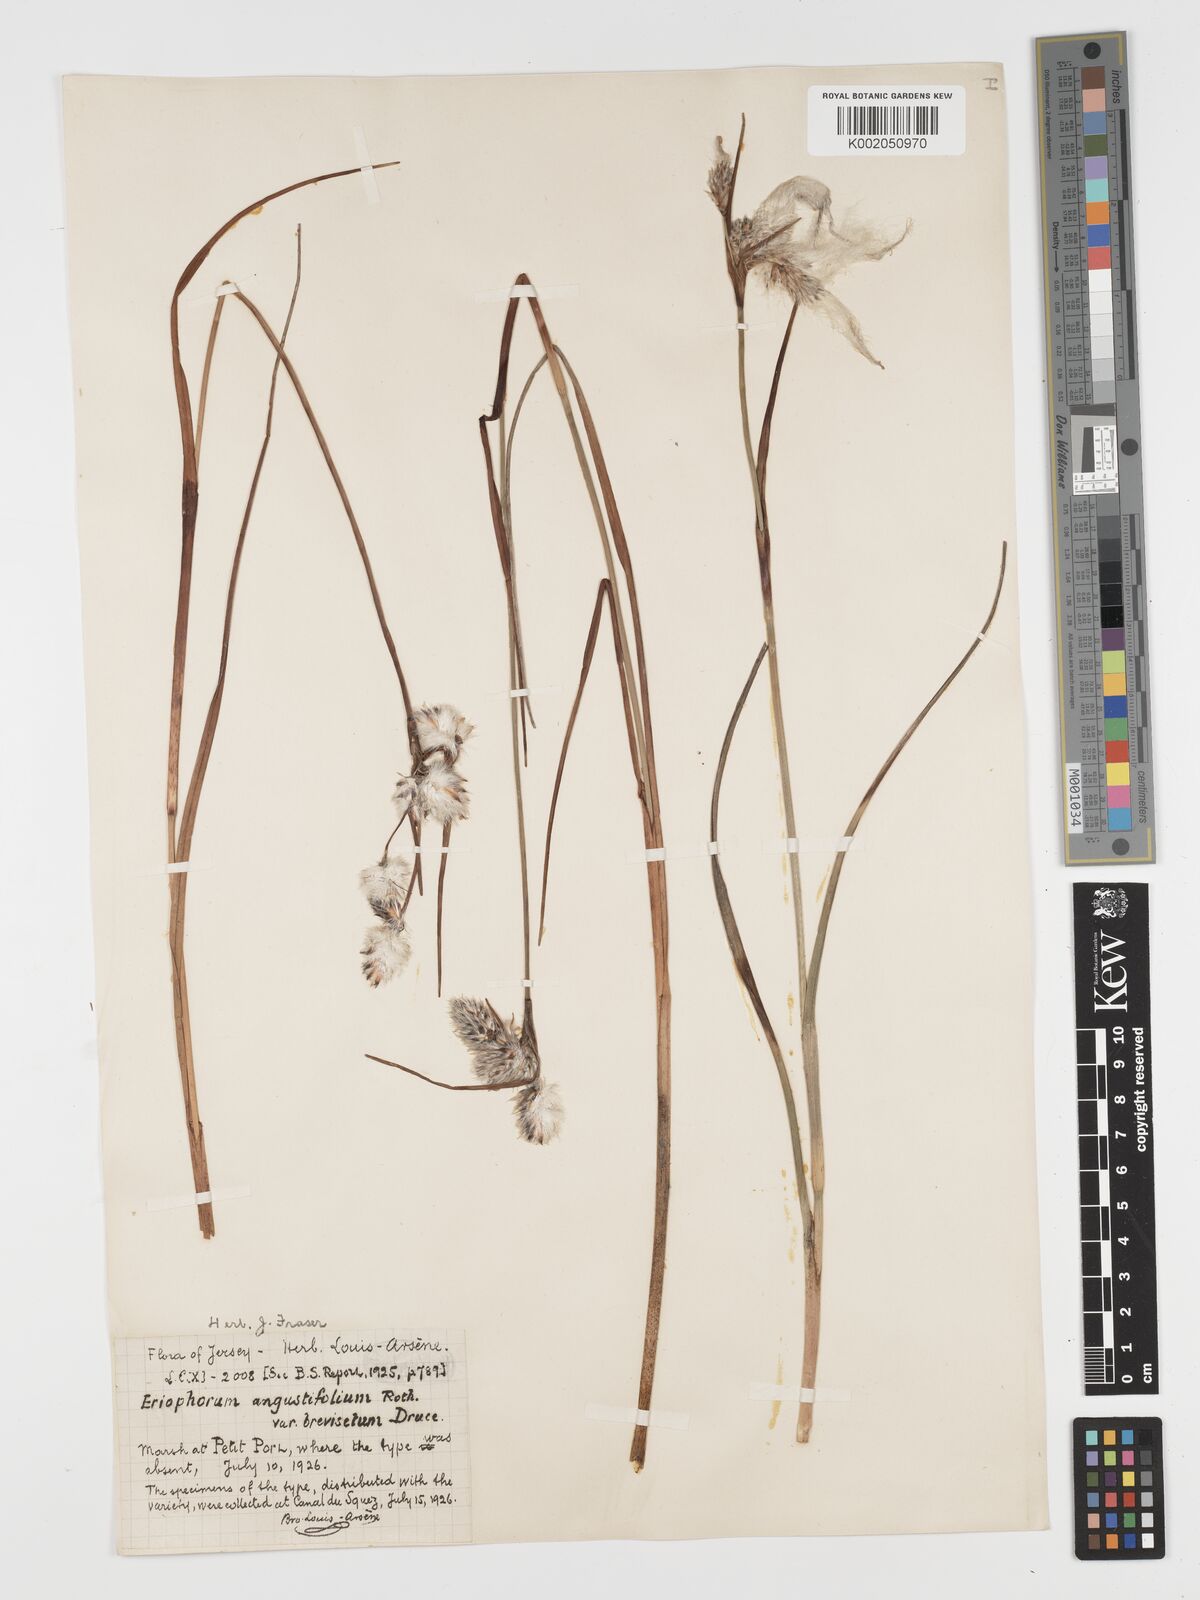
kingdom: Plantae
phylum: Tracheophyta
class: Liliopsida
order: Poales
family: Cyperaceae
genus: Eriophorum
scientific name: Eriophorum angustifolium
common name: Common cottongrass
